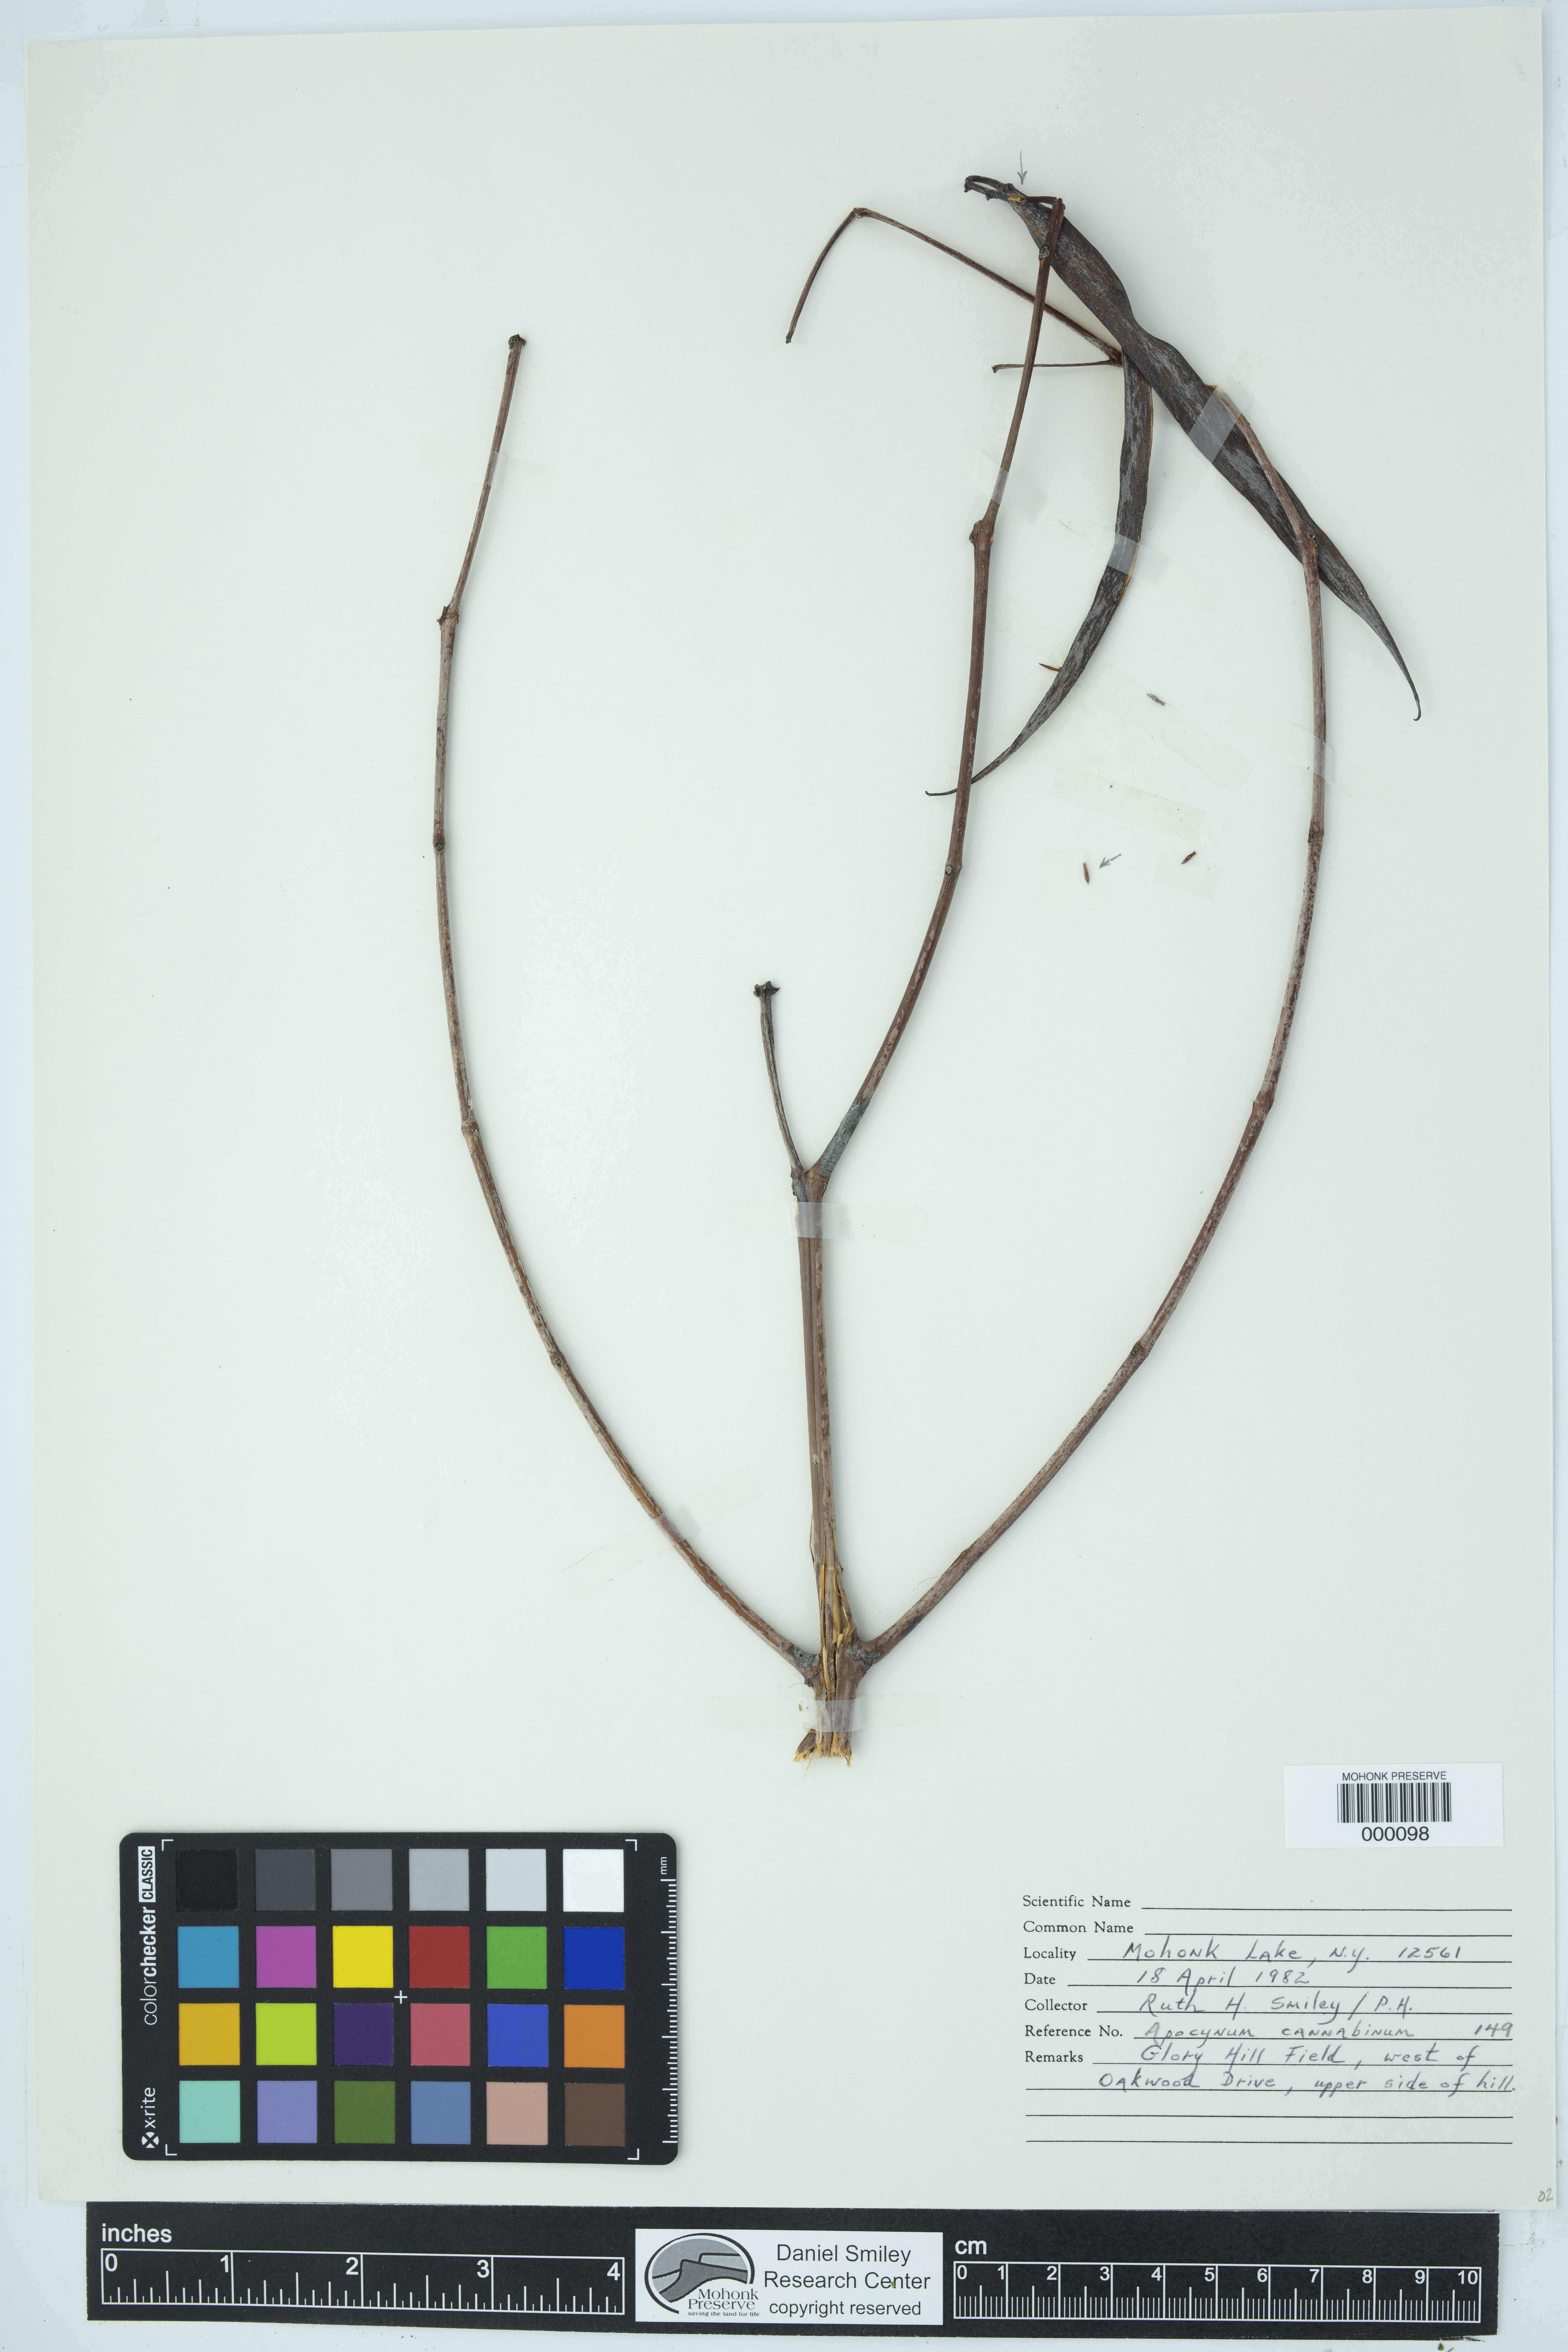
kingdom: Plantae
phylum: Tracheophyta
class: Magnoliopsida
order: Gentianales
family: Apocynaceae
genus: Apocynum
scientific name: Apocynum cannabinum
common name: Hemp dogbane
